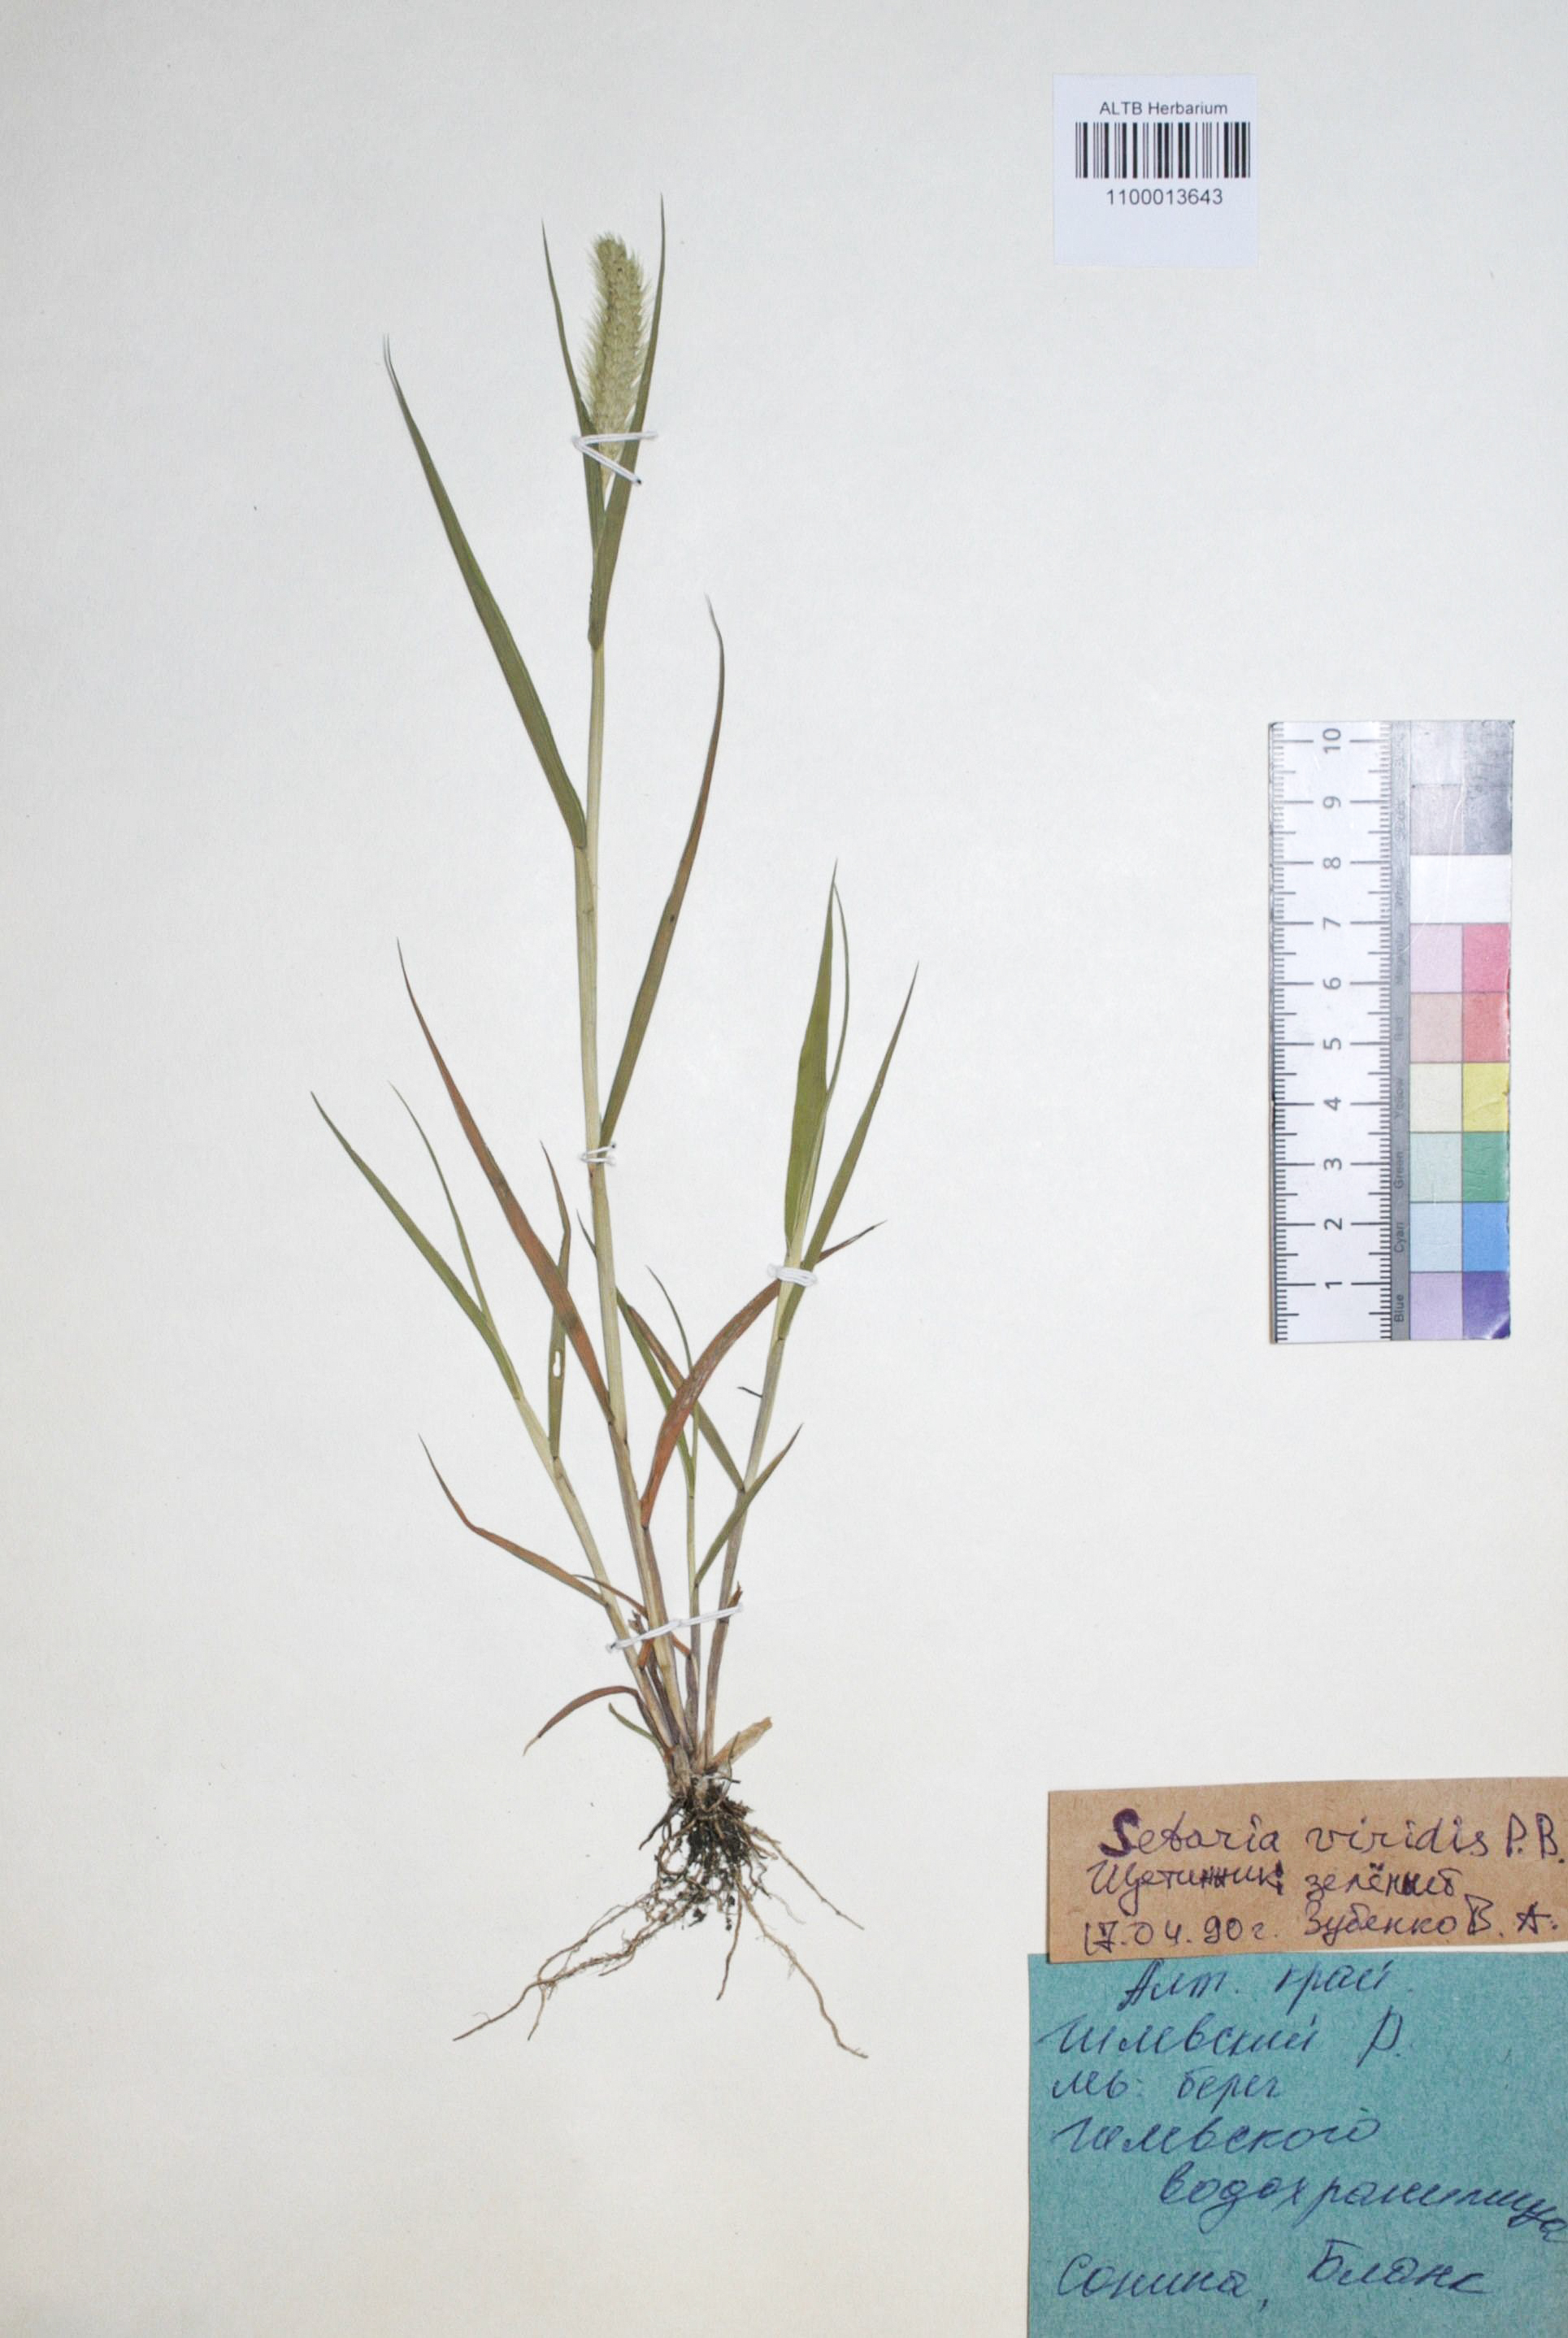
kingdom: Plantae
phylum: Tracheophyta
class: Liliopsida
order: Poales
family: Poaceae
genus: Setaria
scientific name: Setaria viridis
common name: Green bristlegrass
